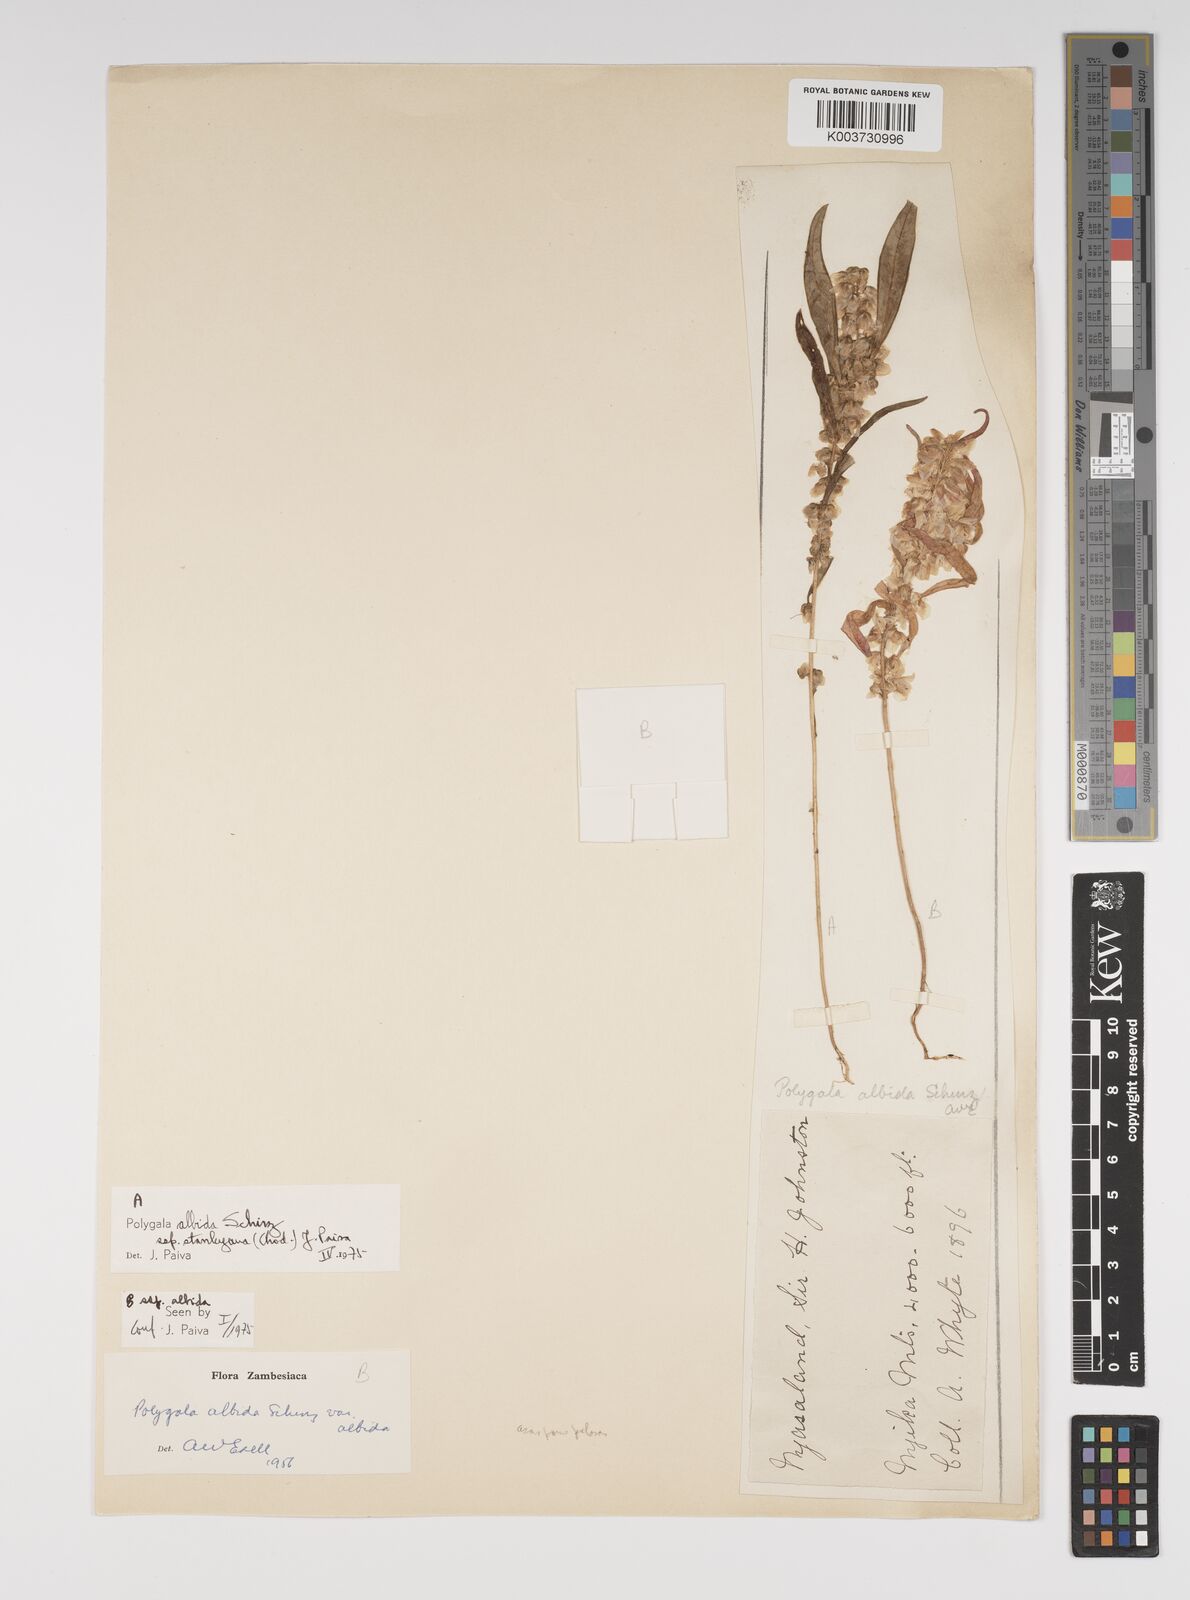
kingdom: Plantae
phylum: Tracheophyta
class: Magnoliopsida
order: Fabales
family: Polygalaceae
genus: Polygala
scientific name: Polygala albida
